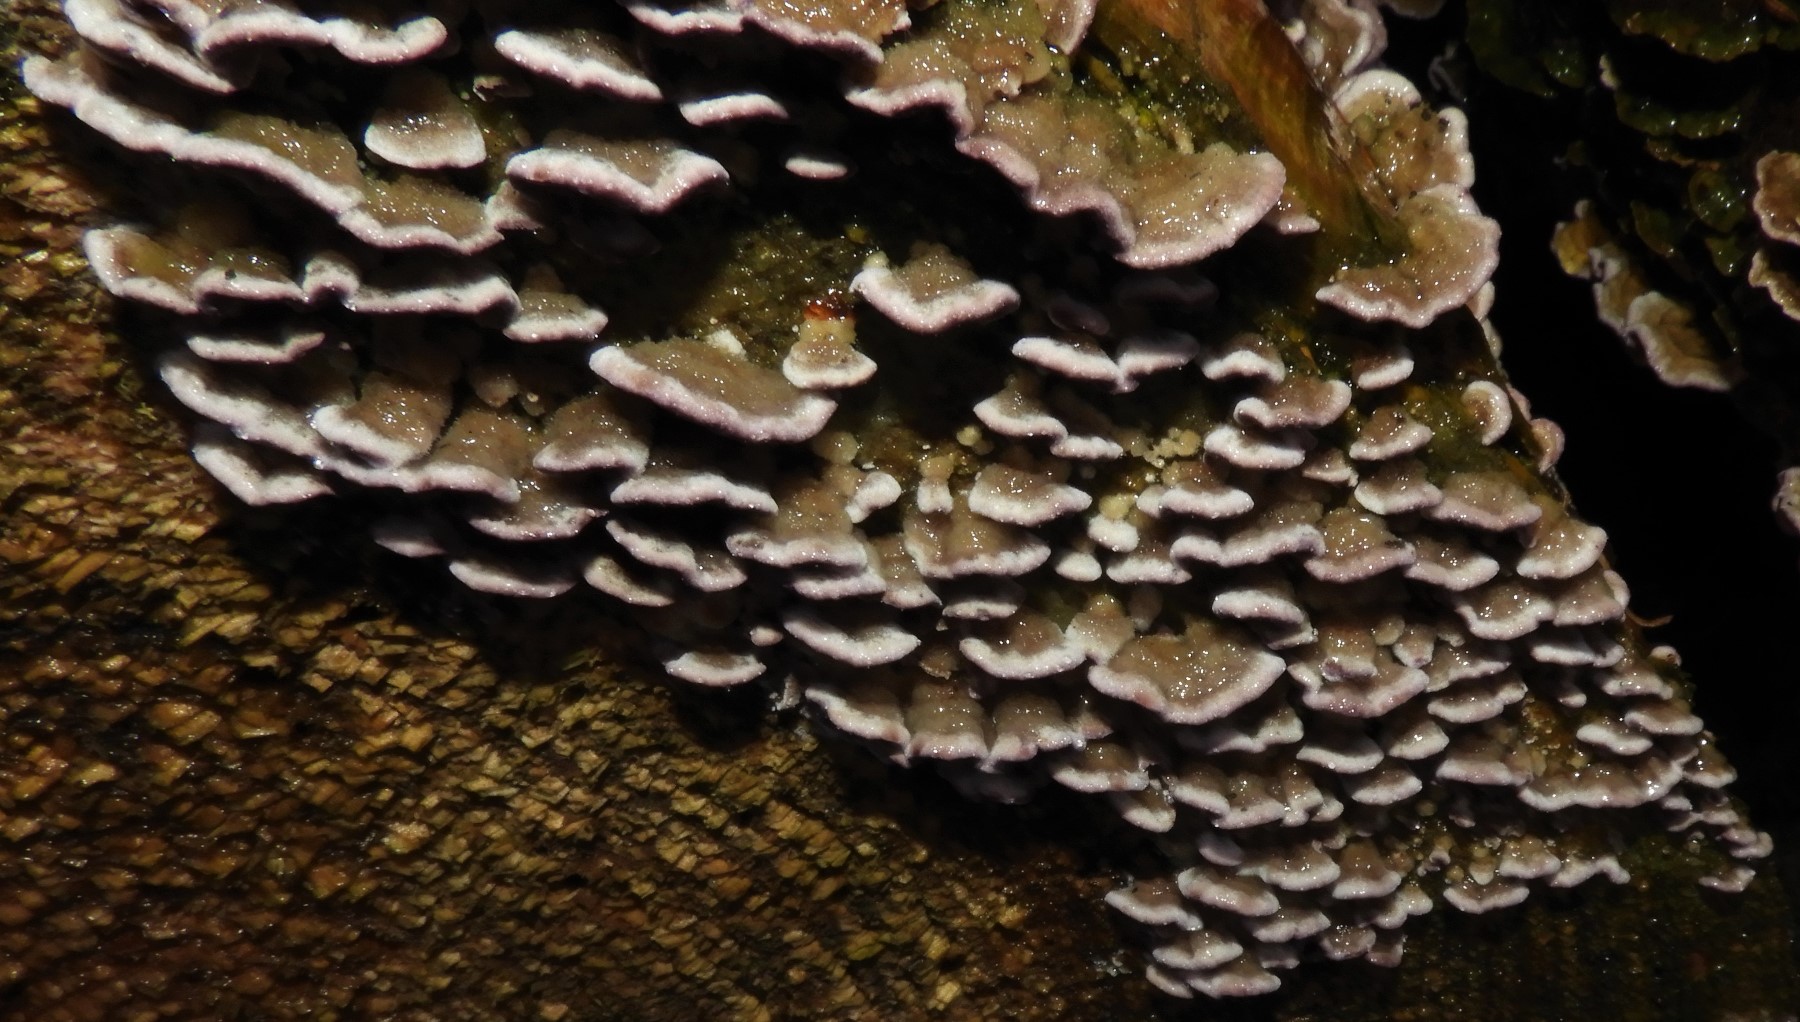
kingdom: Fungi
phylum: Basidiomycota
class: Agaricomycetes
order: Hymenochaetales
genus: Trichaptum
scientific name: Trichaptum abietinum
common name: almindelig violporesvamp
